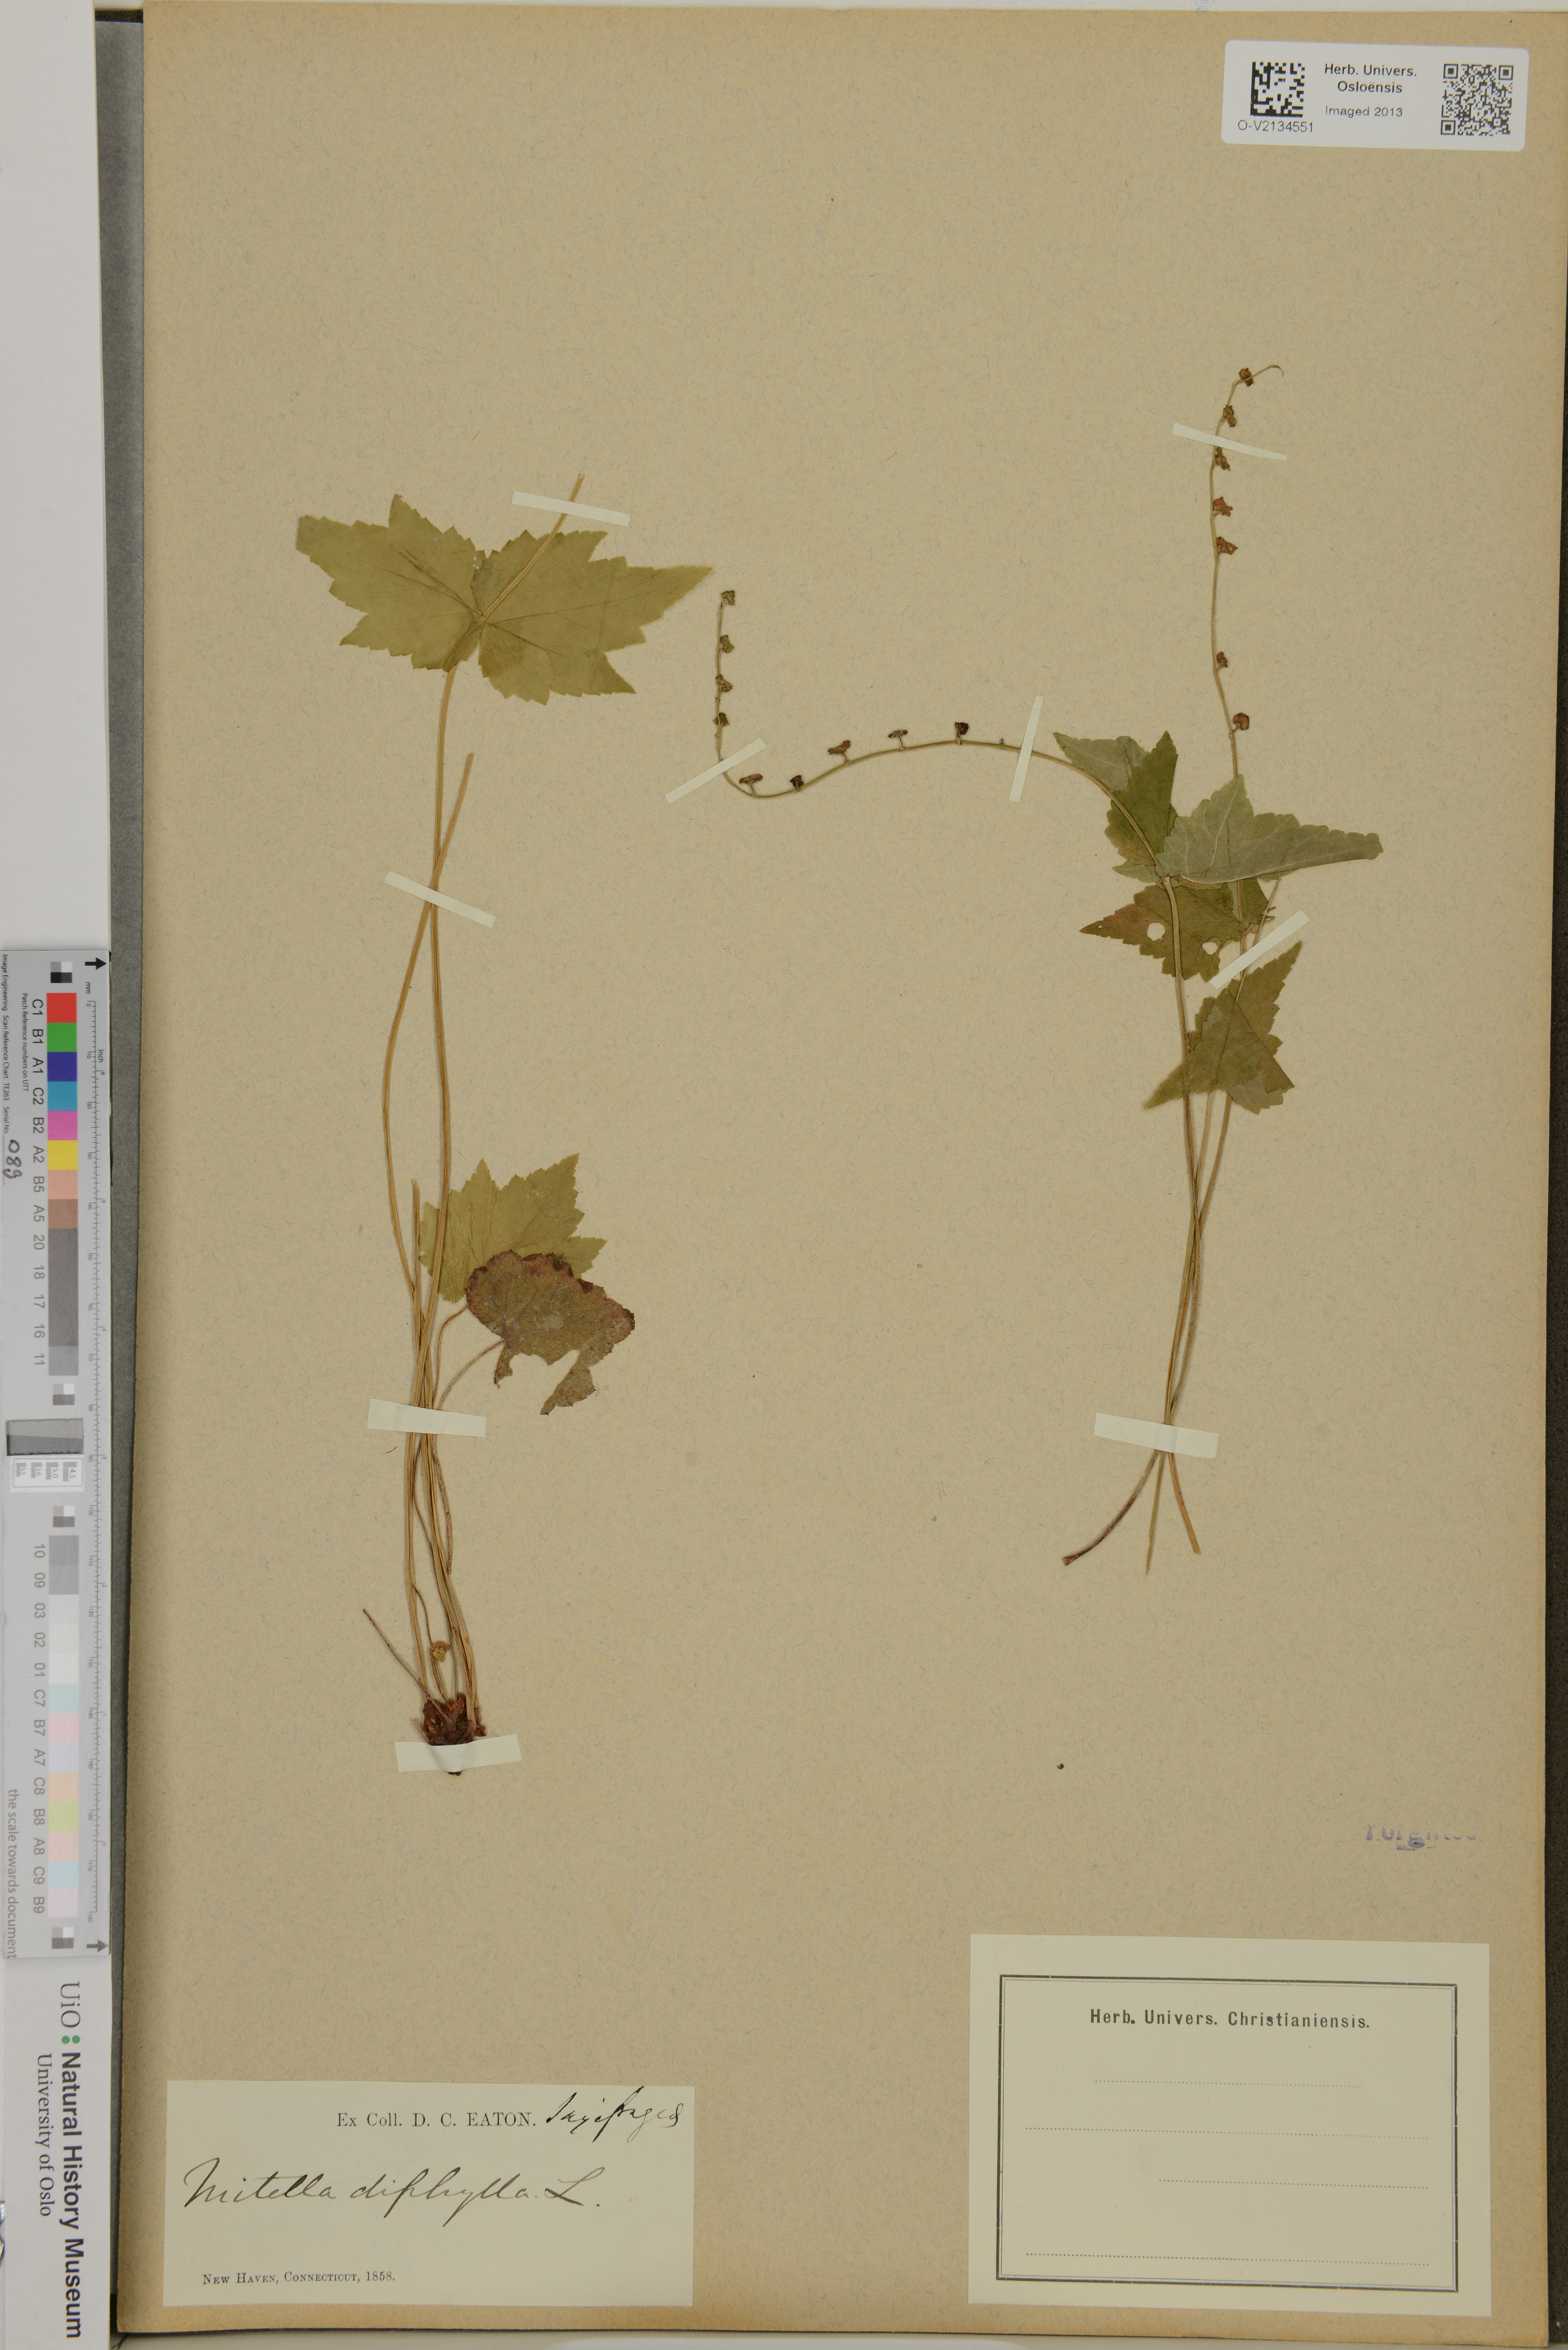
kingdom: Plantae
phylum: Tracheophyta
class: Magnoliopsida
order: Saxifragales
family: Saxifragaceae
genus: Mitella
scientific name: Mitella diphylla
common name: Coolwort
